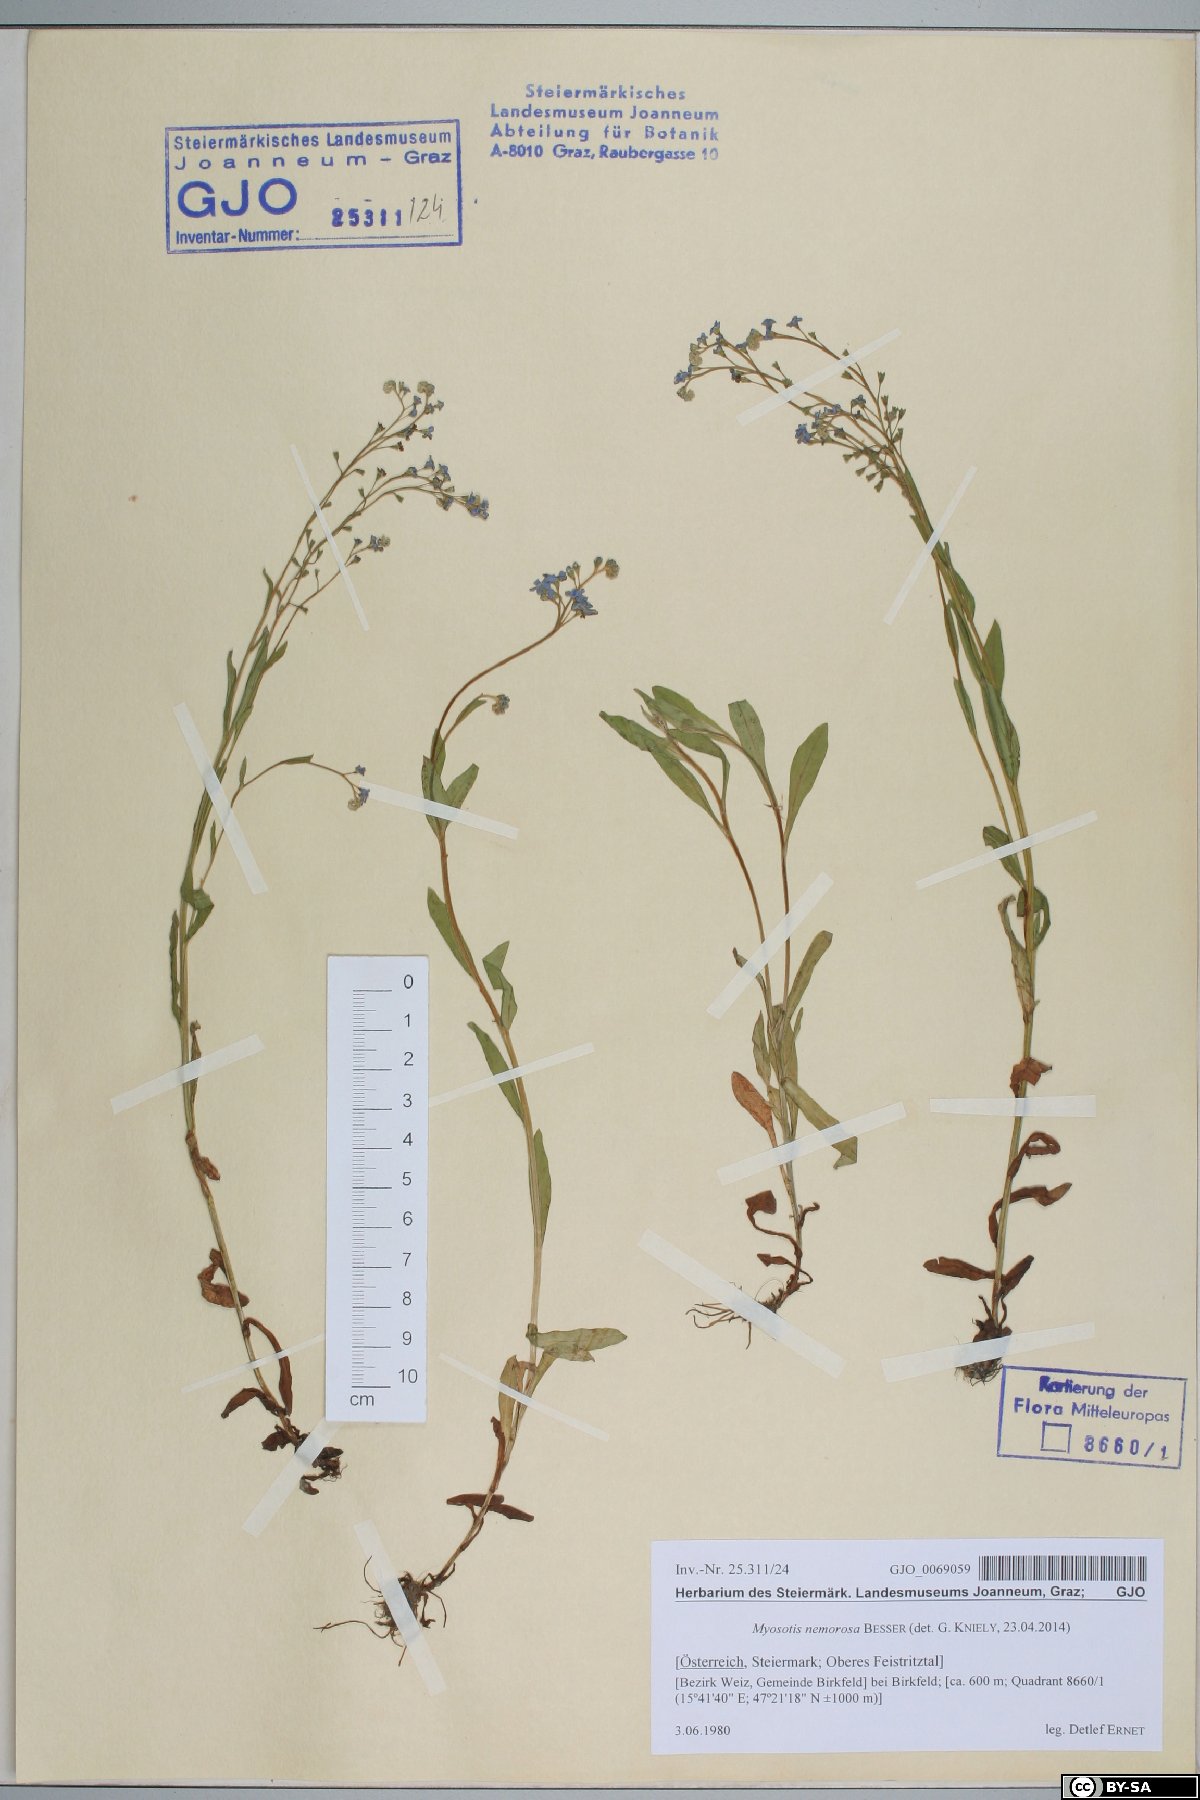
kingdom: Plantae
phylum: Tracheophyta
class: Magnoliopsida
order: Boraginales
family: Boraginaceae
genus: Myosotis
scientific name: Myosotis nemorosa
